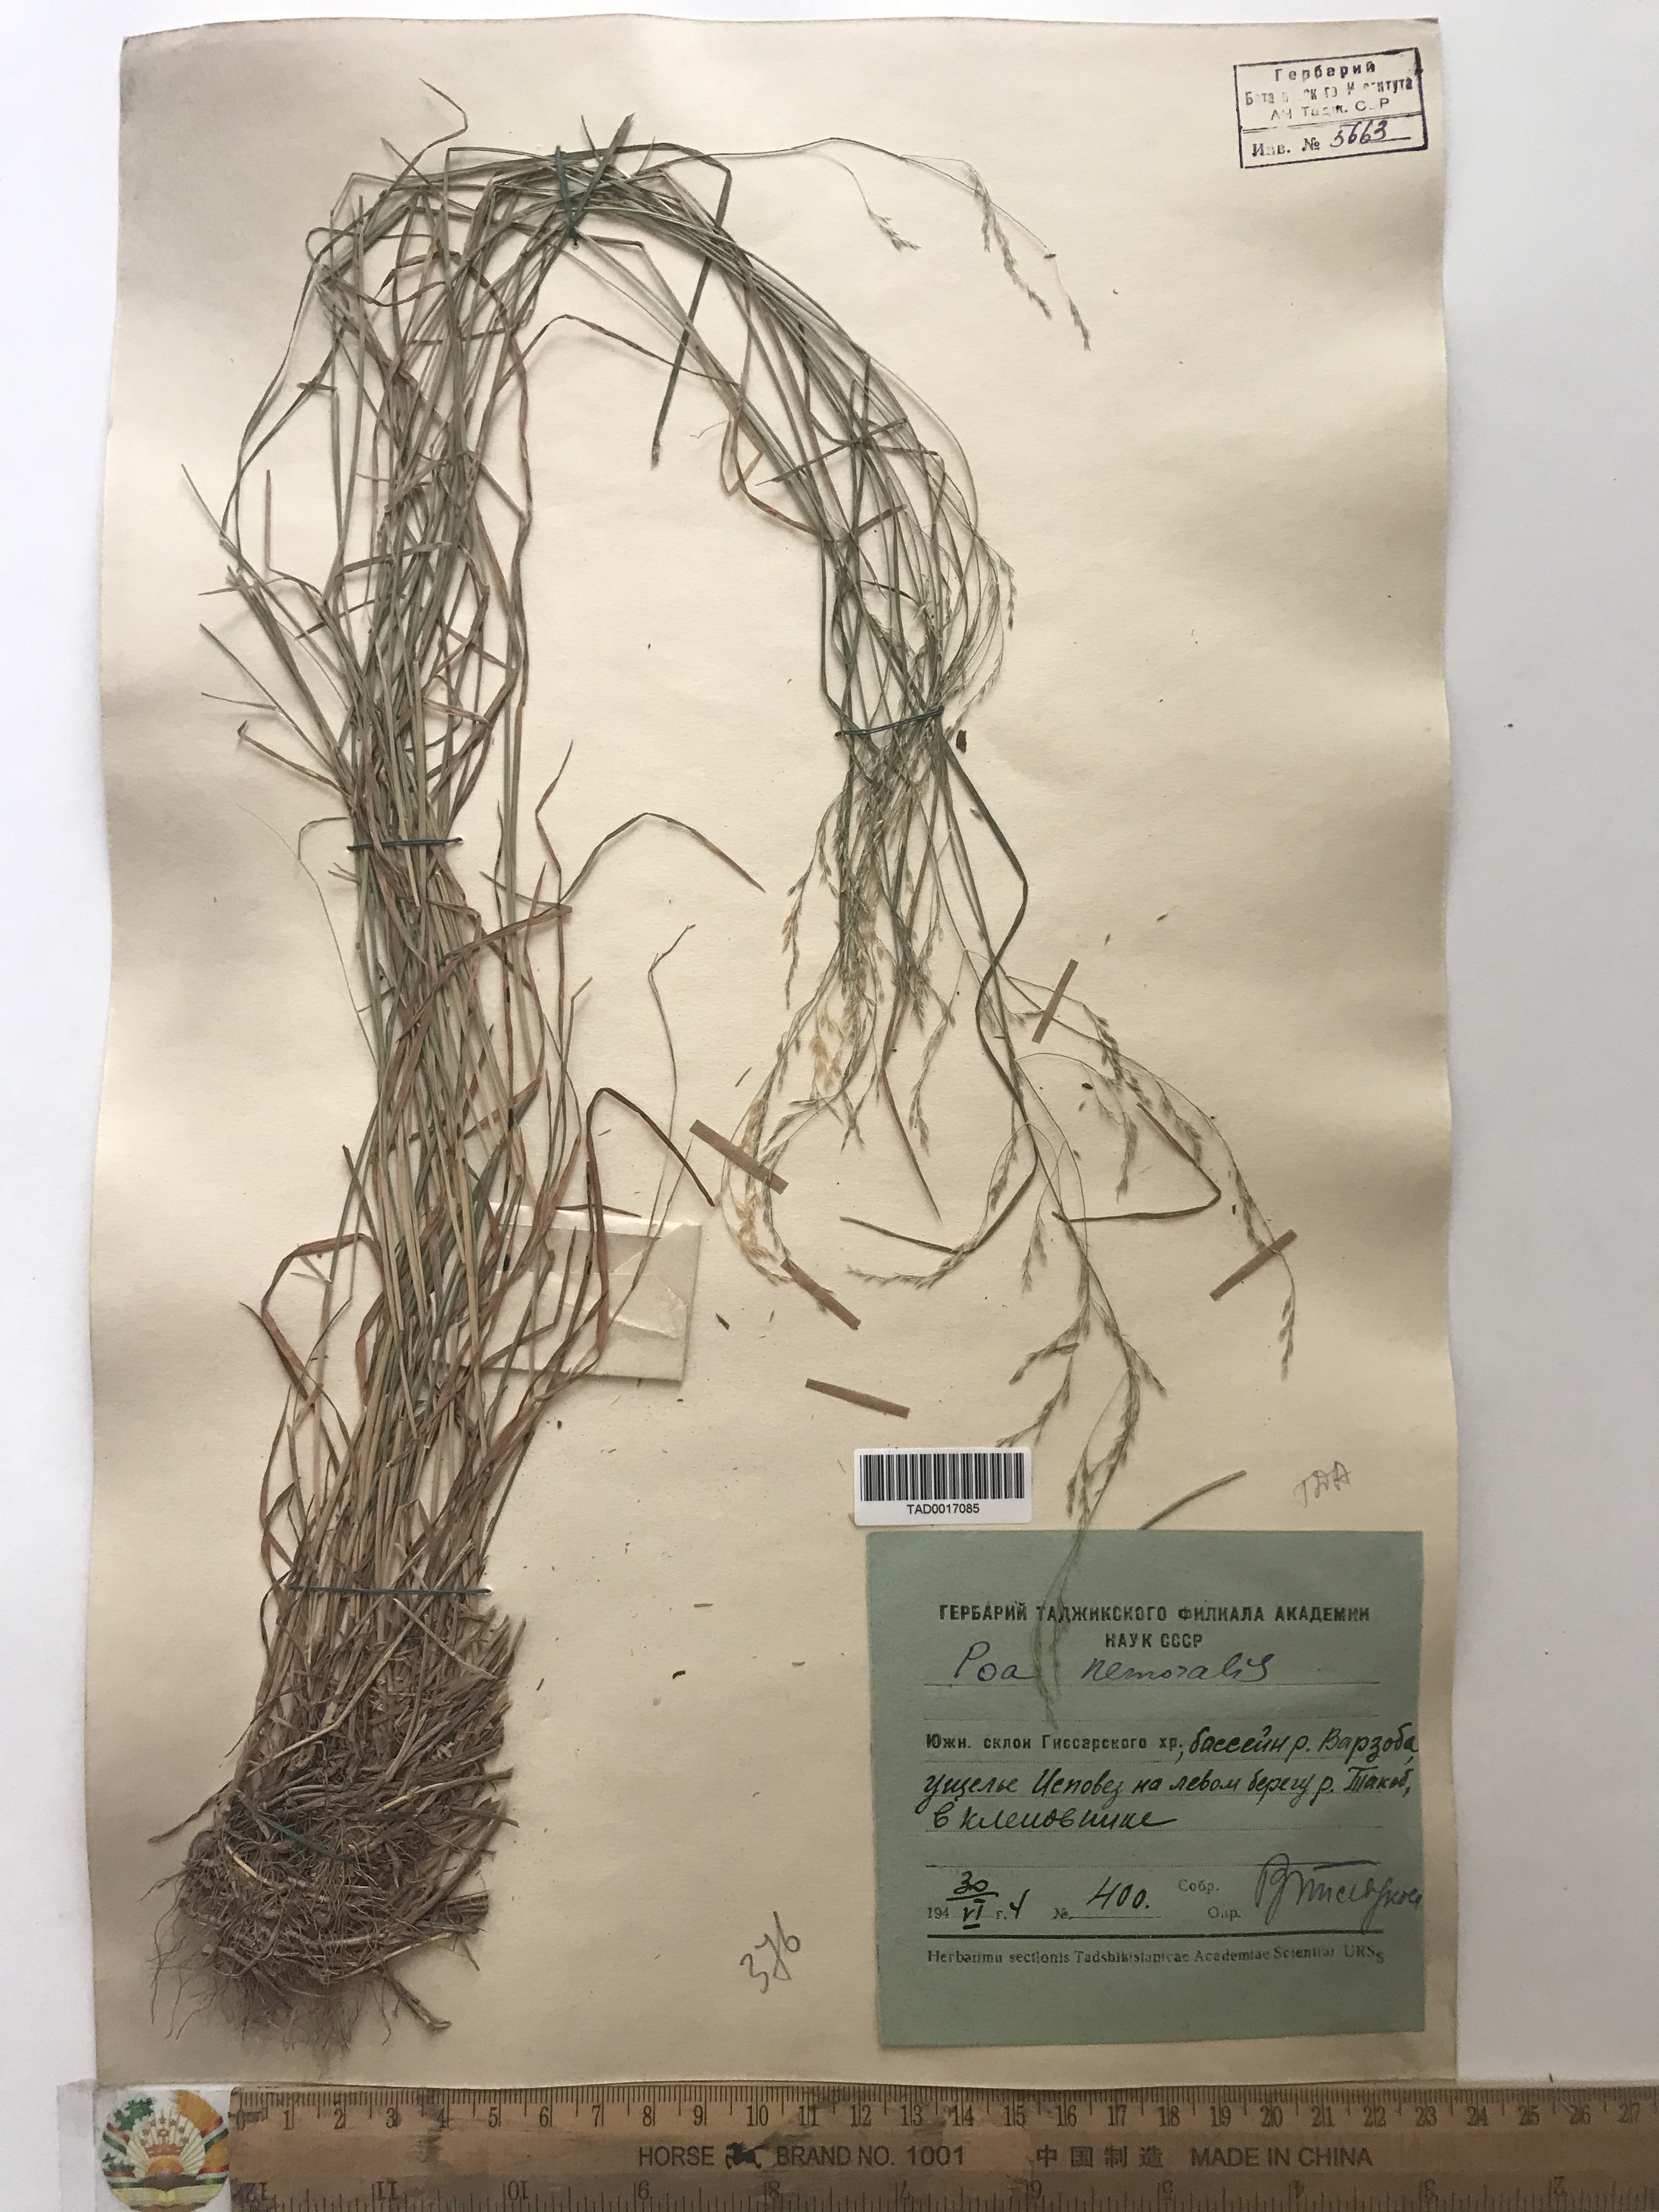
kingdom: Plantae
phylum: Tracheophyta
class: Liliopsida
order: Poales
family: Poaceae
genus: Poa
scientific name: Poa nemoralis
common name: Wood bluegrass
